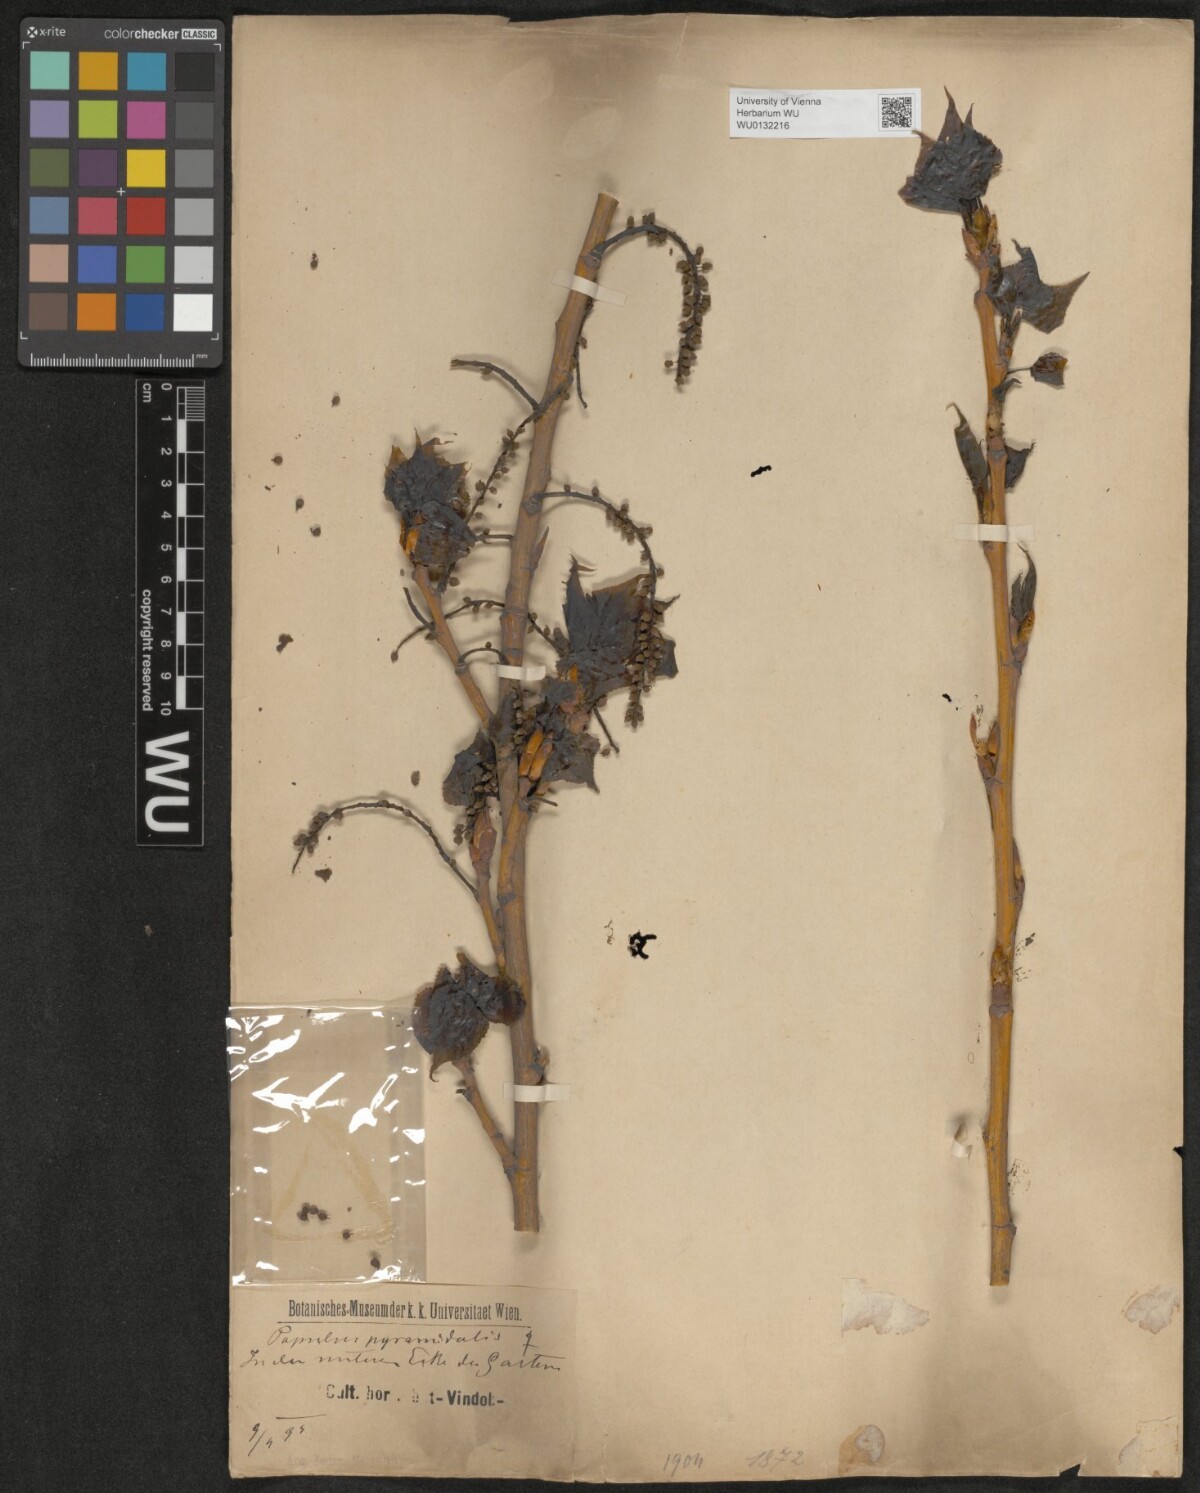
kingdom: Plantae
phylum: Tracheophyta
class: Magnoliopsida
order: Malpighiales
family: Salicaceae
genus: Populus
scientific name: Populus nigra
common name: Black poplar
